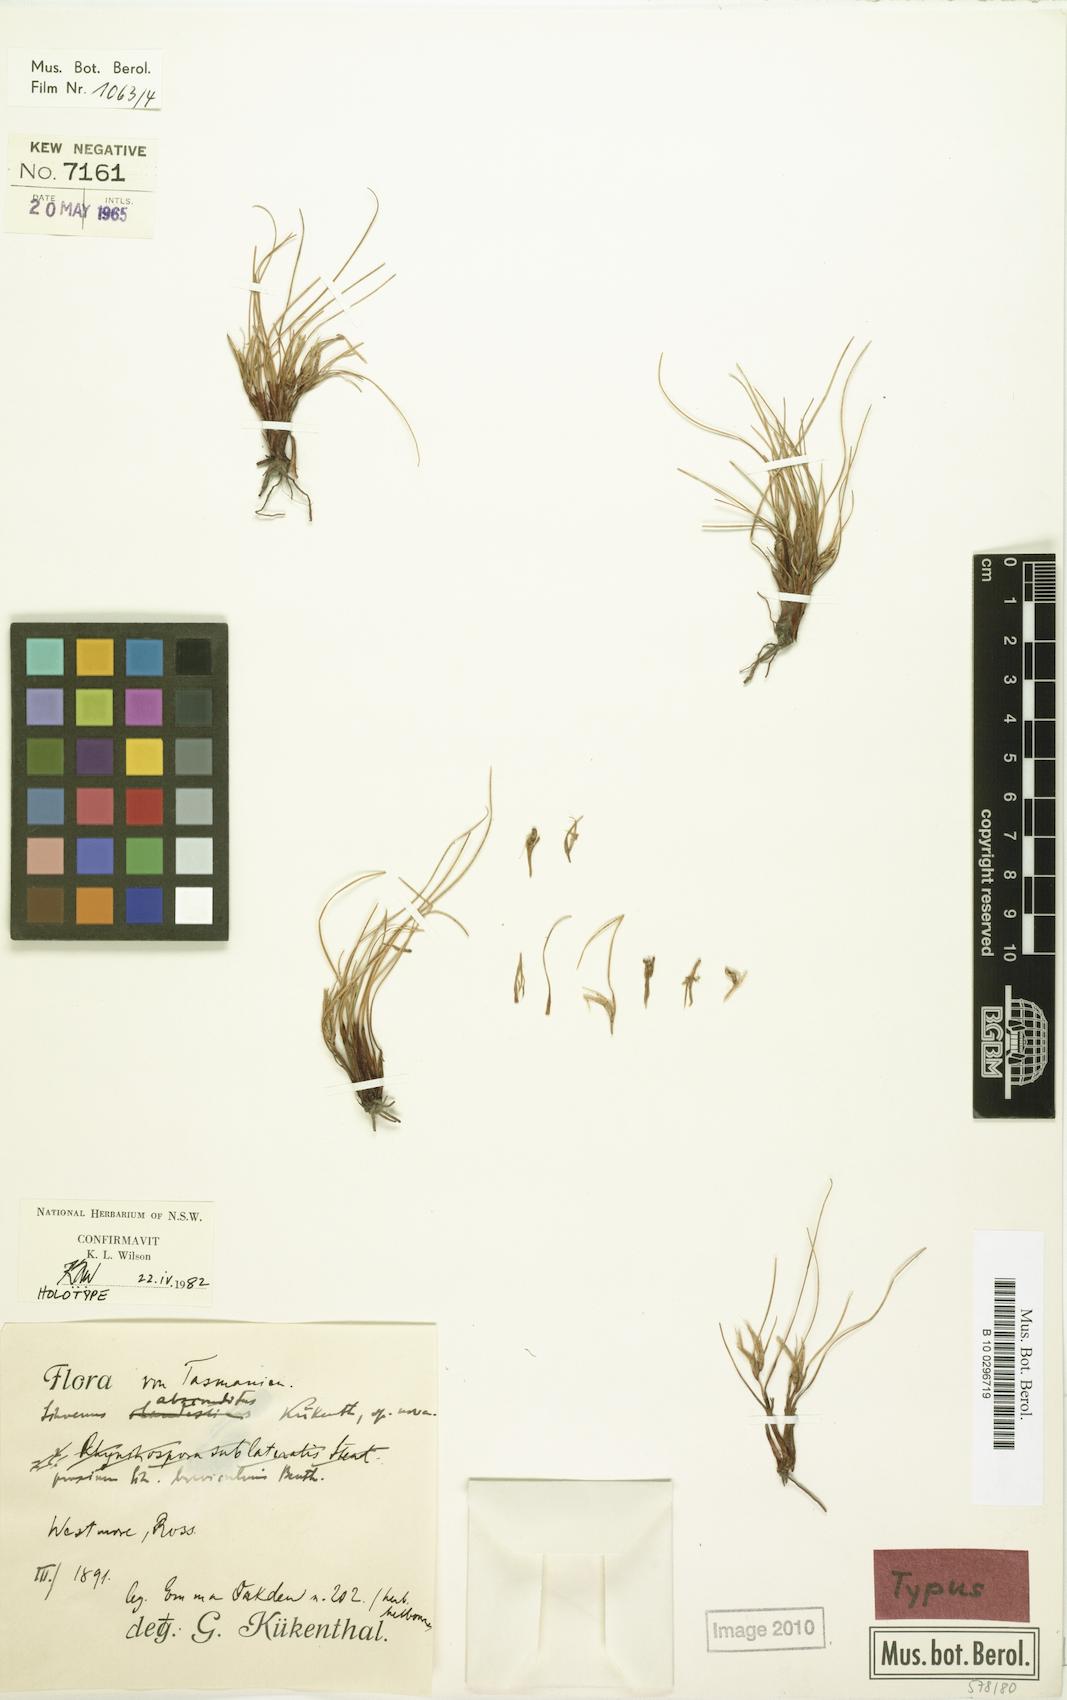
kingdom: Plantae
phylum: Tracheophyta
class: Liliopsida
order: Poales
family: Cyperaceae
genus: Schoenus
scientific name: Schoenus absconditus
